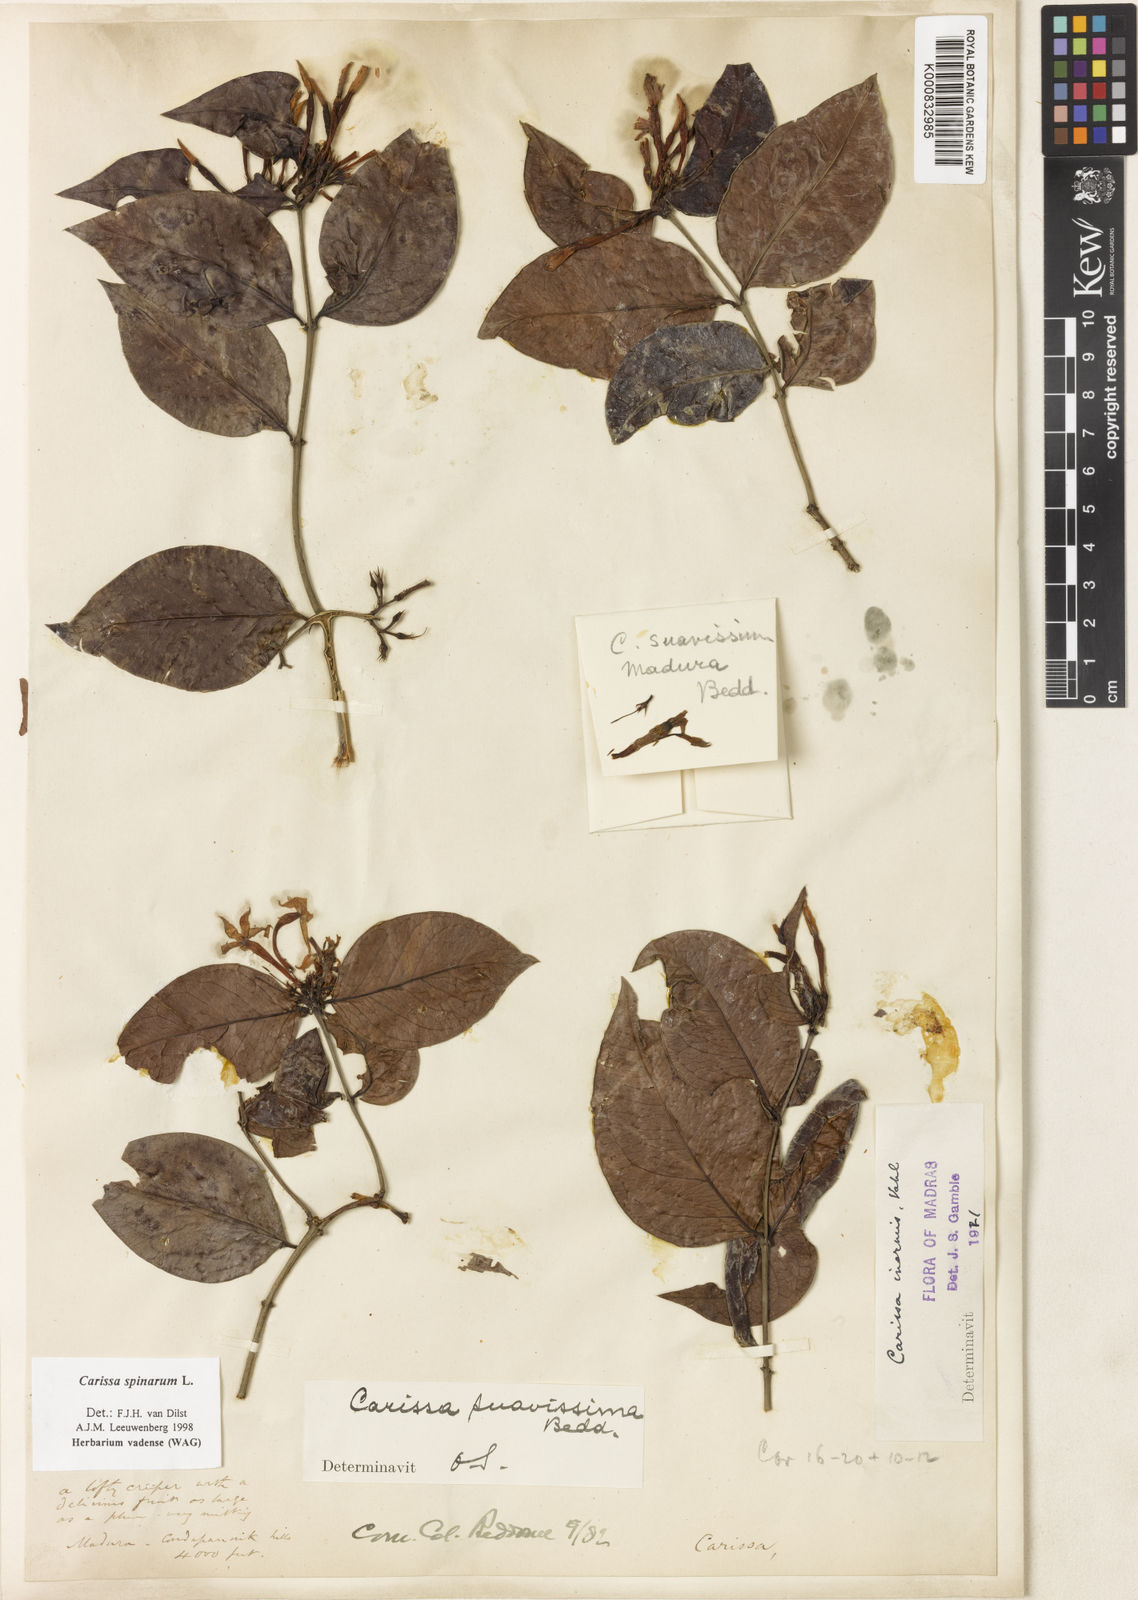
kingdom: Plantae
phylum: Tracheophyta
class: Magnoliopsida
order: Gentianales
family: Apocynaceae
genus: Carissa
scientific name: Carissa inermis
